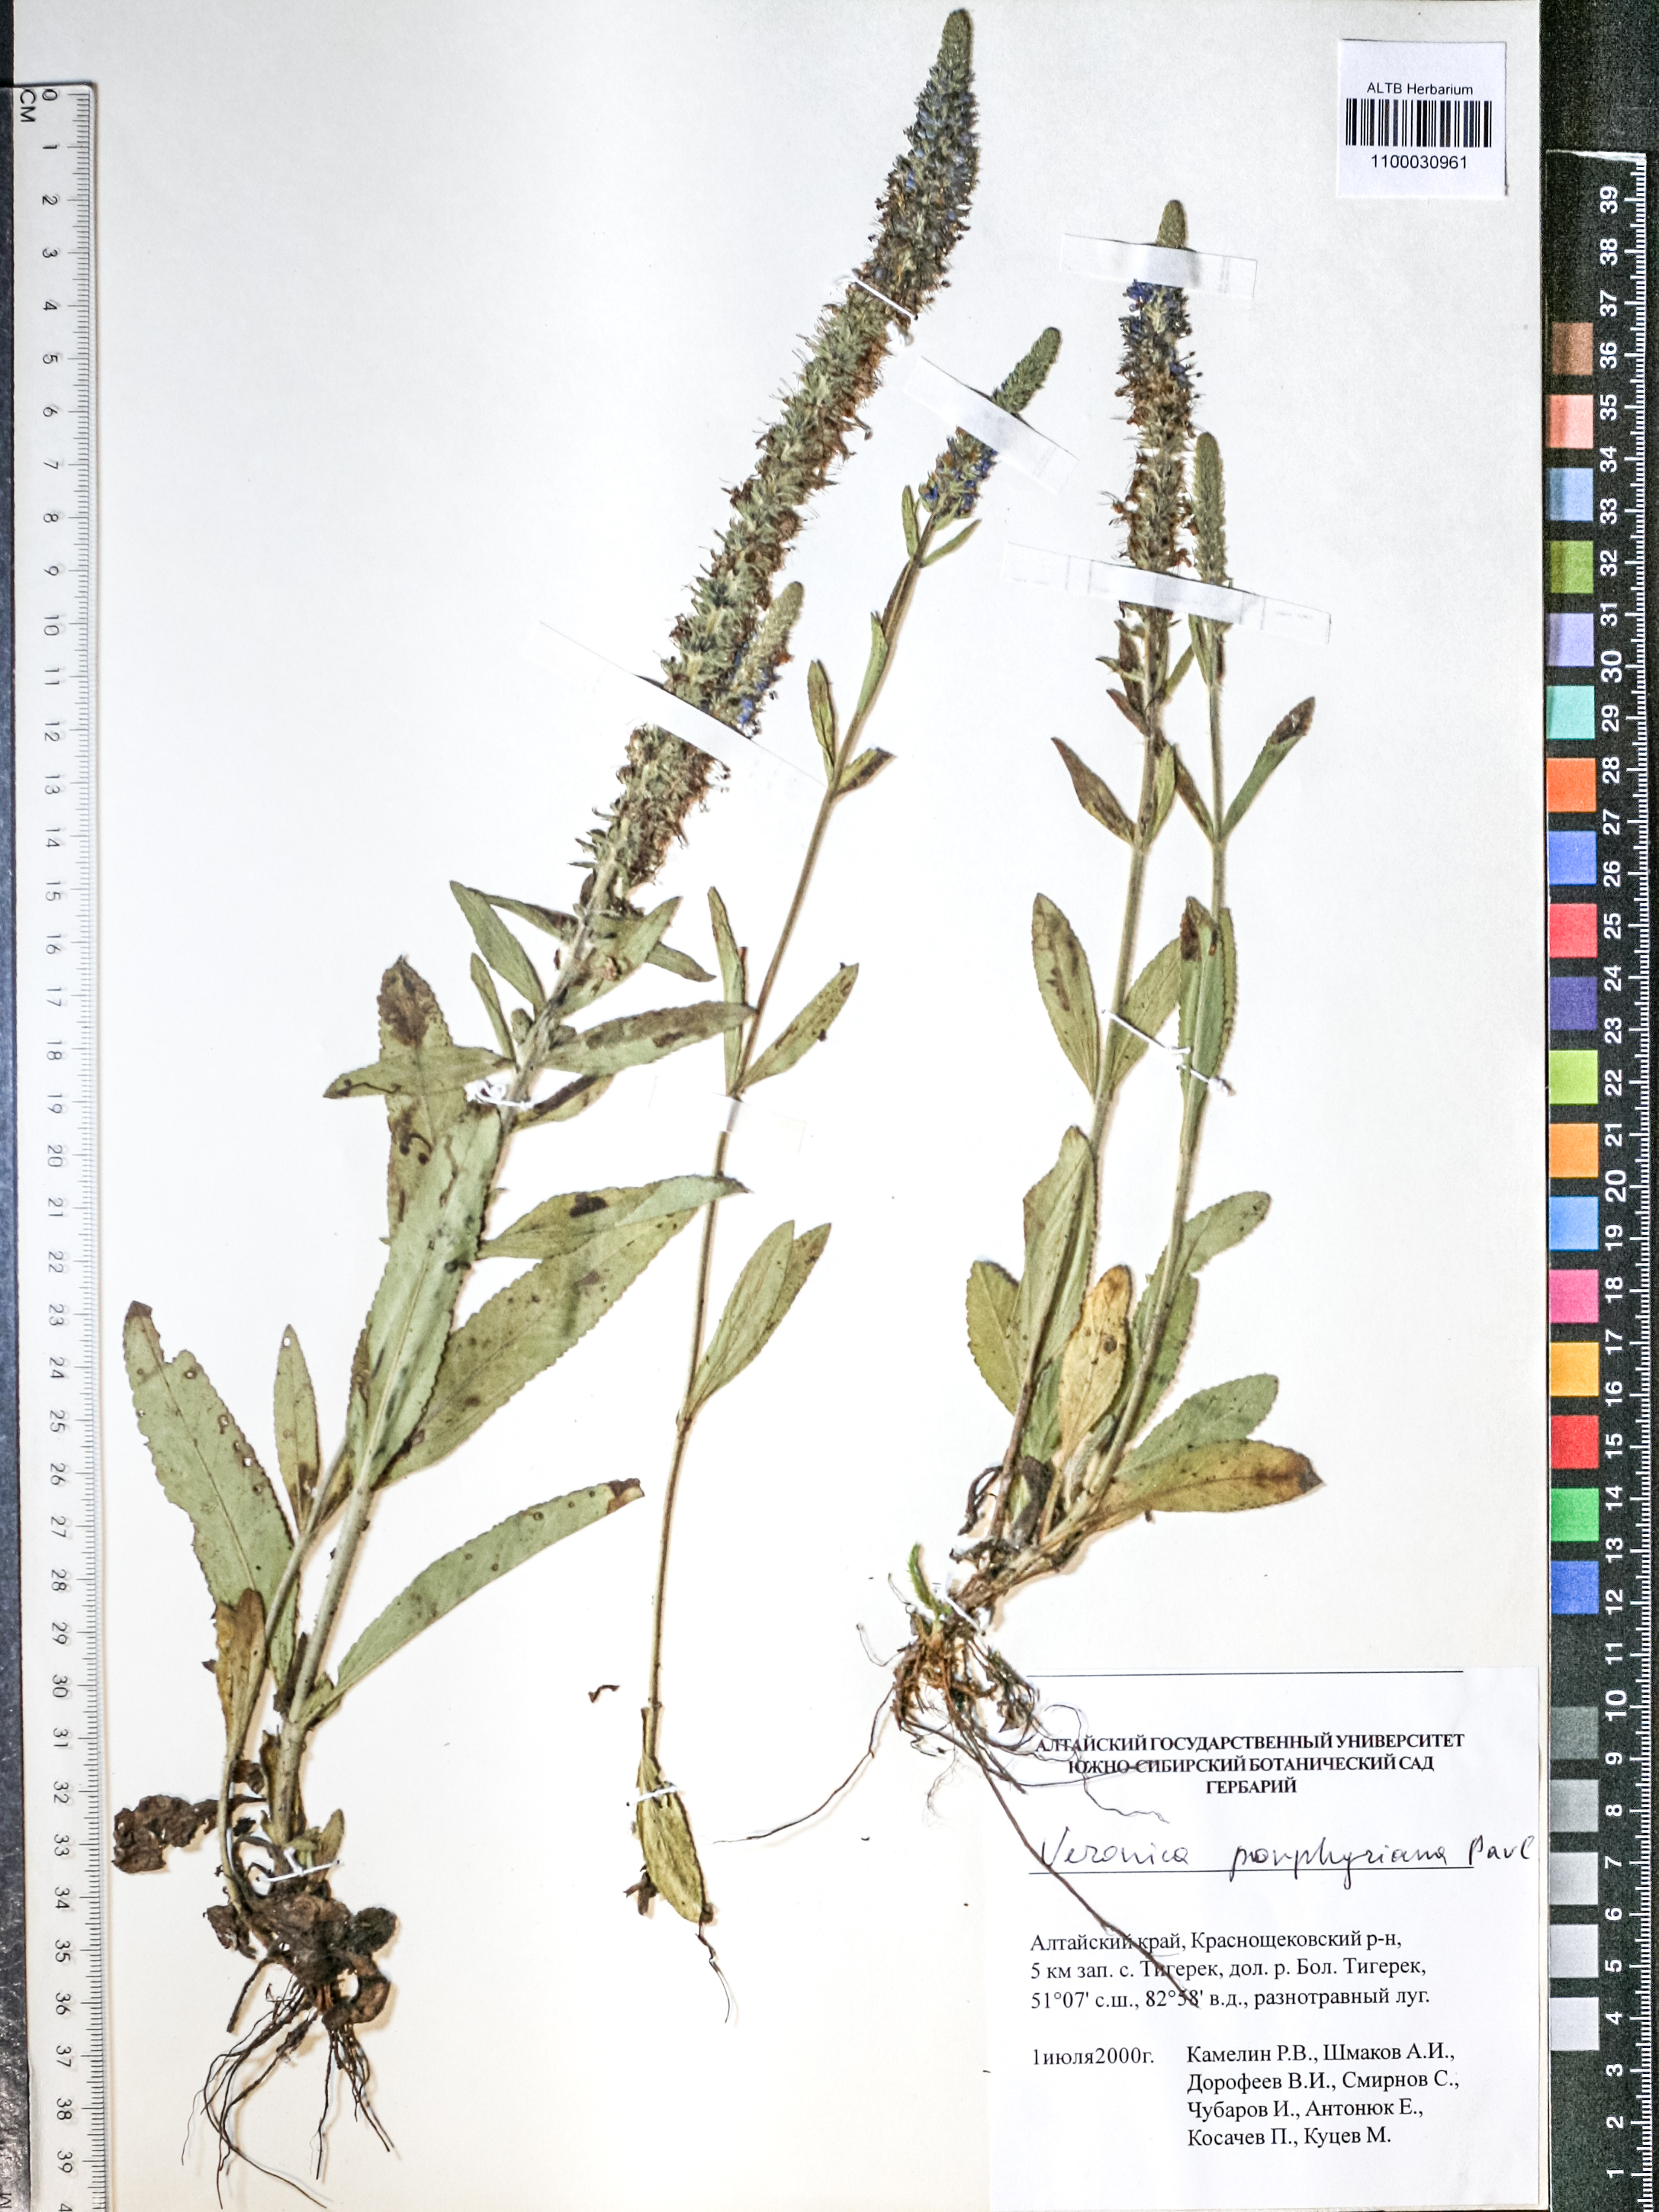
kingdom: Plantae
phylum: Tracheophyta
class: Magnoliopsida
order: Lamiales
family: Plantaginaceae
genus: Veronica
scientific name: Veronica porphyriana
